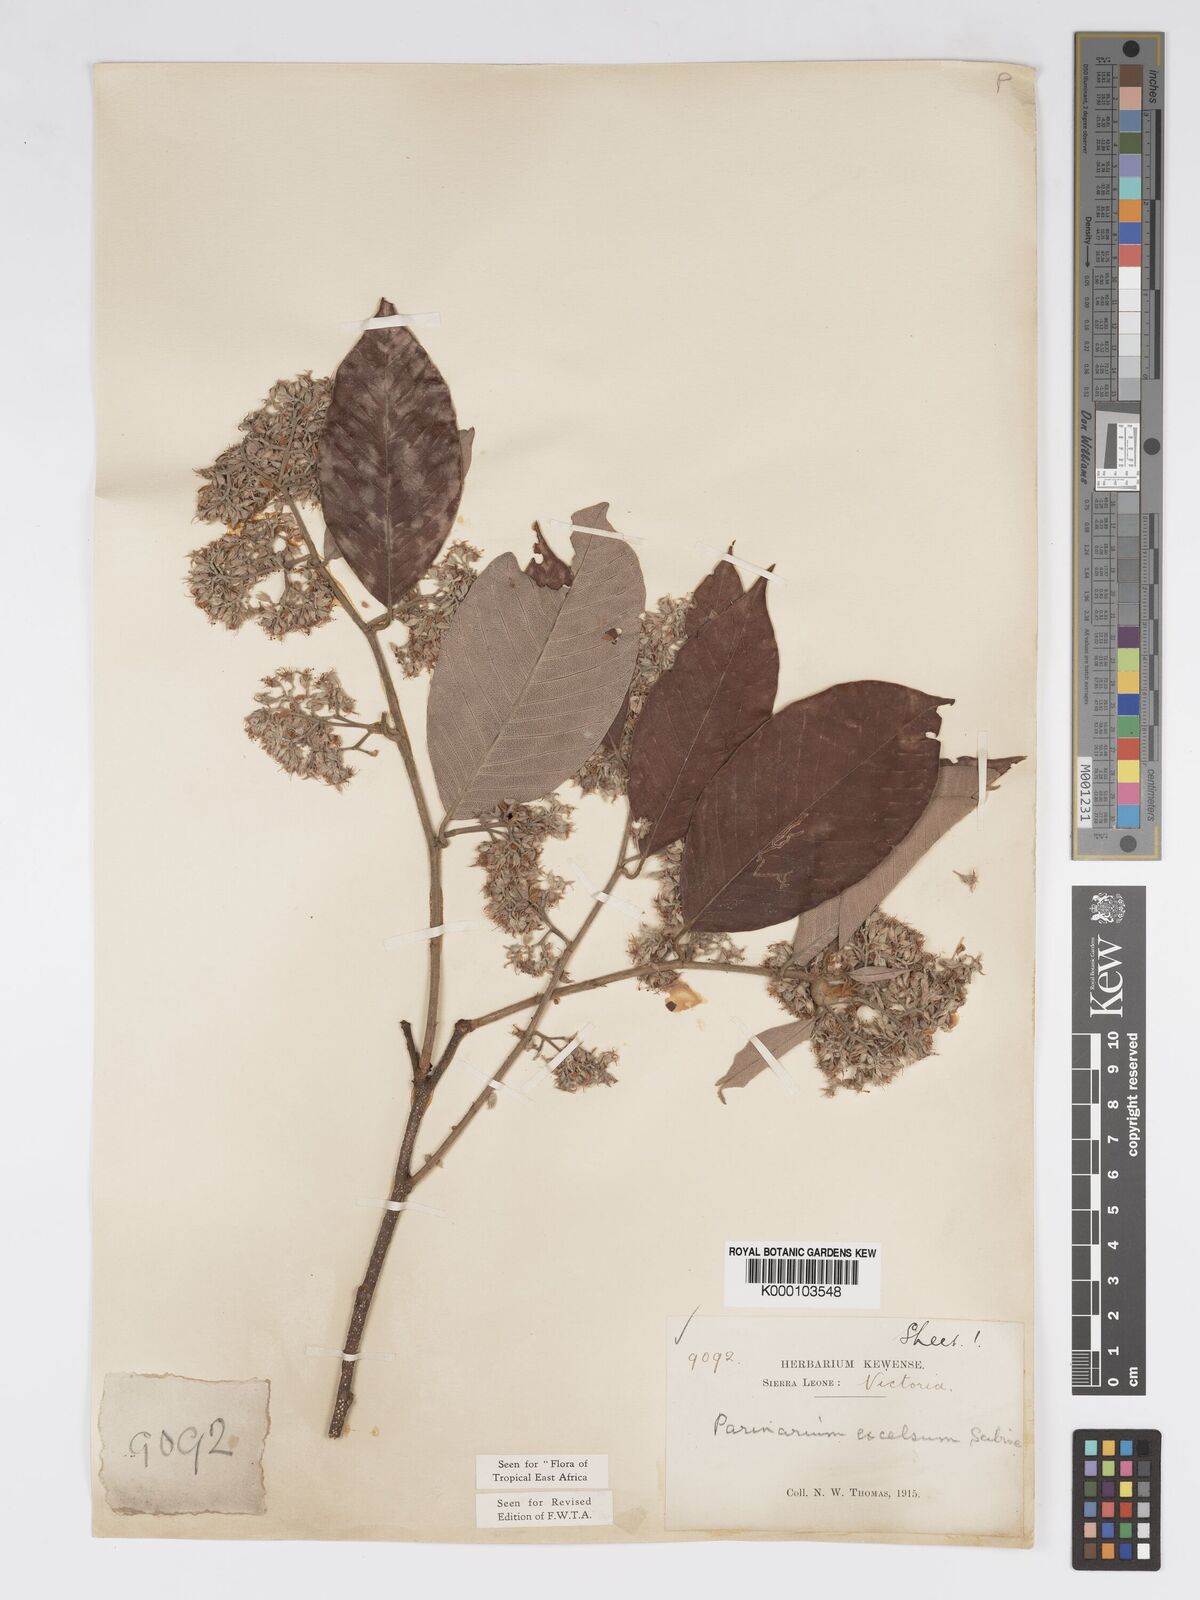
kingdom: Plantae
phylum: Tracheophyta
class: Magnoliopsida
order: Malpighiales
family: Chrysobalanaceae
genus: Parinari
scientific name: Parinari excelsa
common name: Guinea-plum
